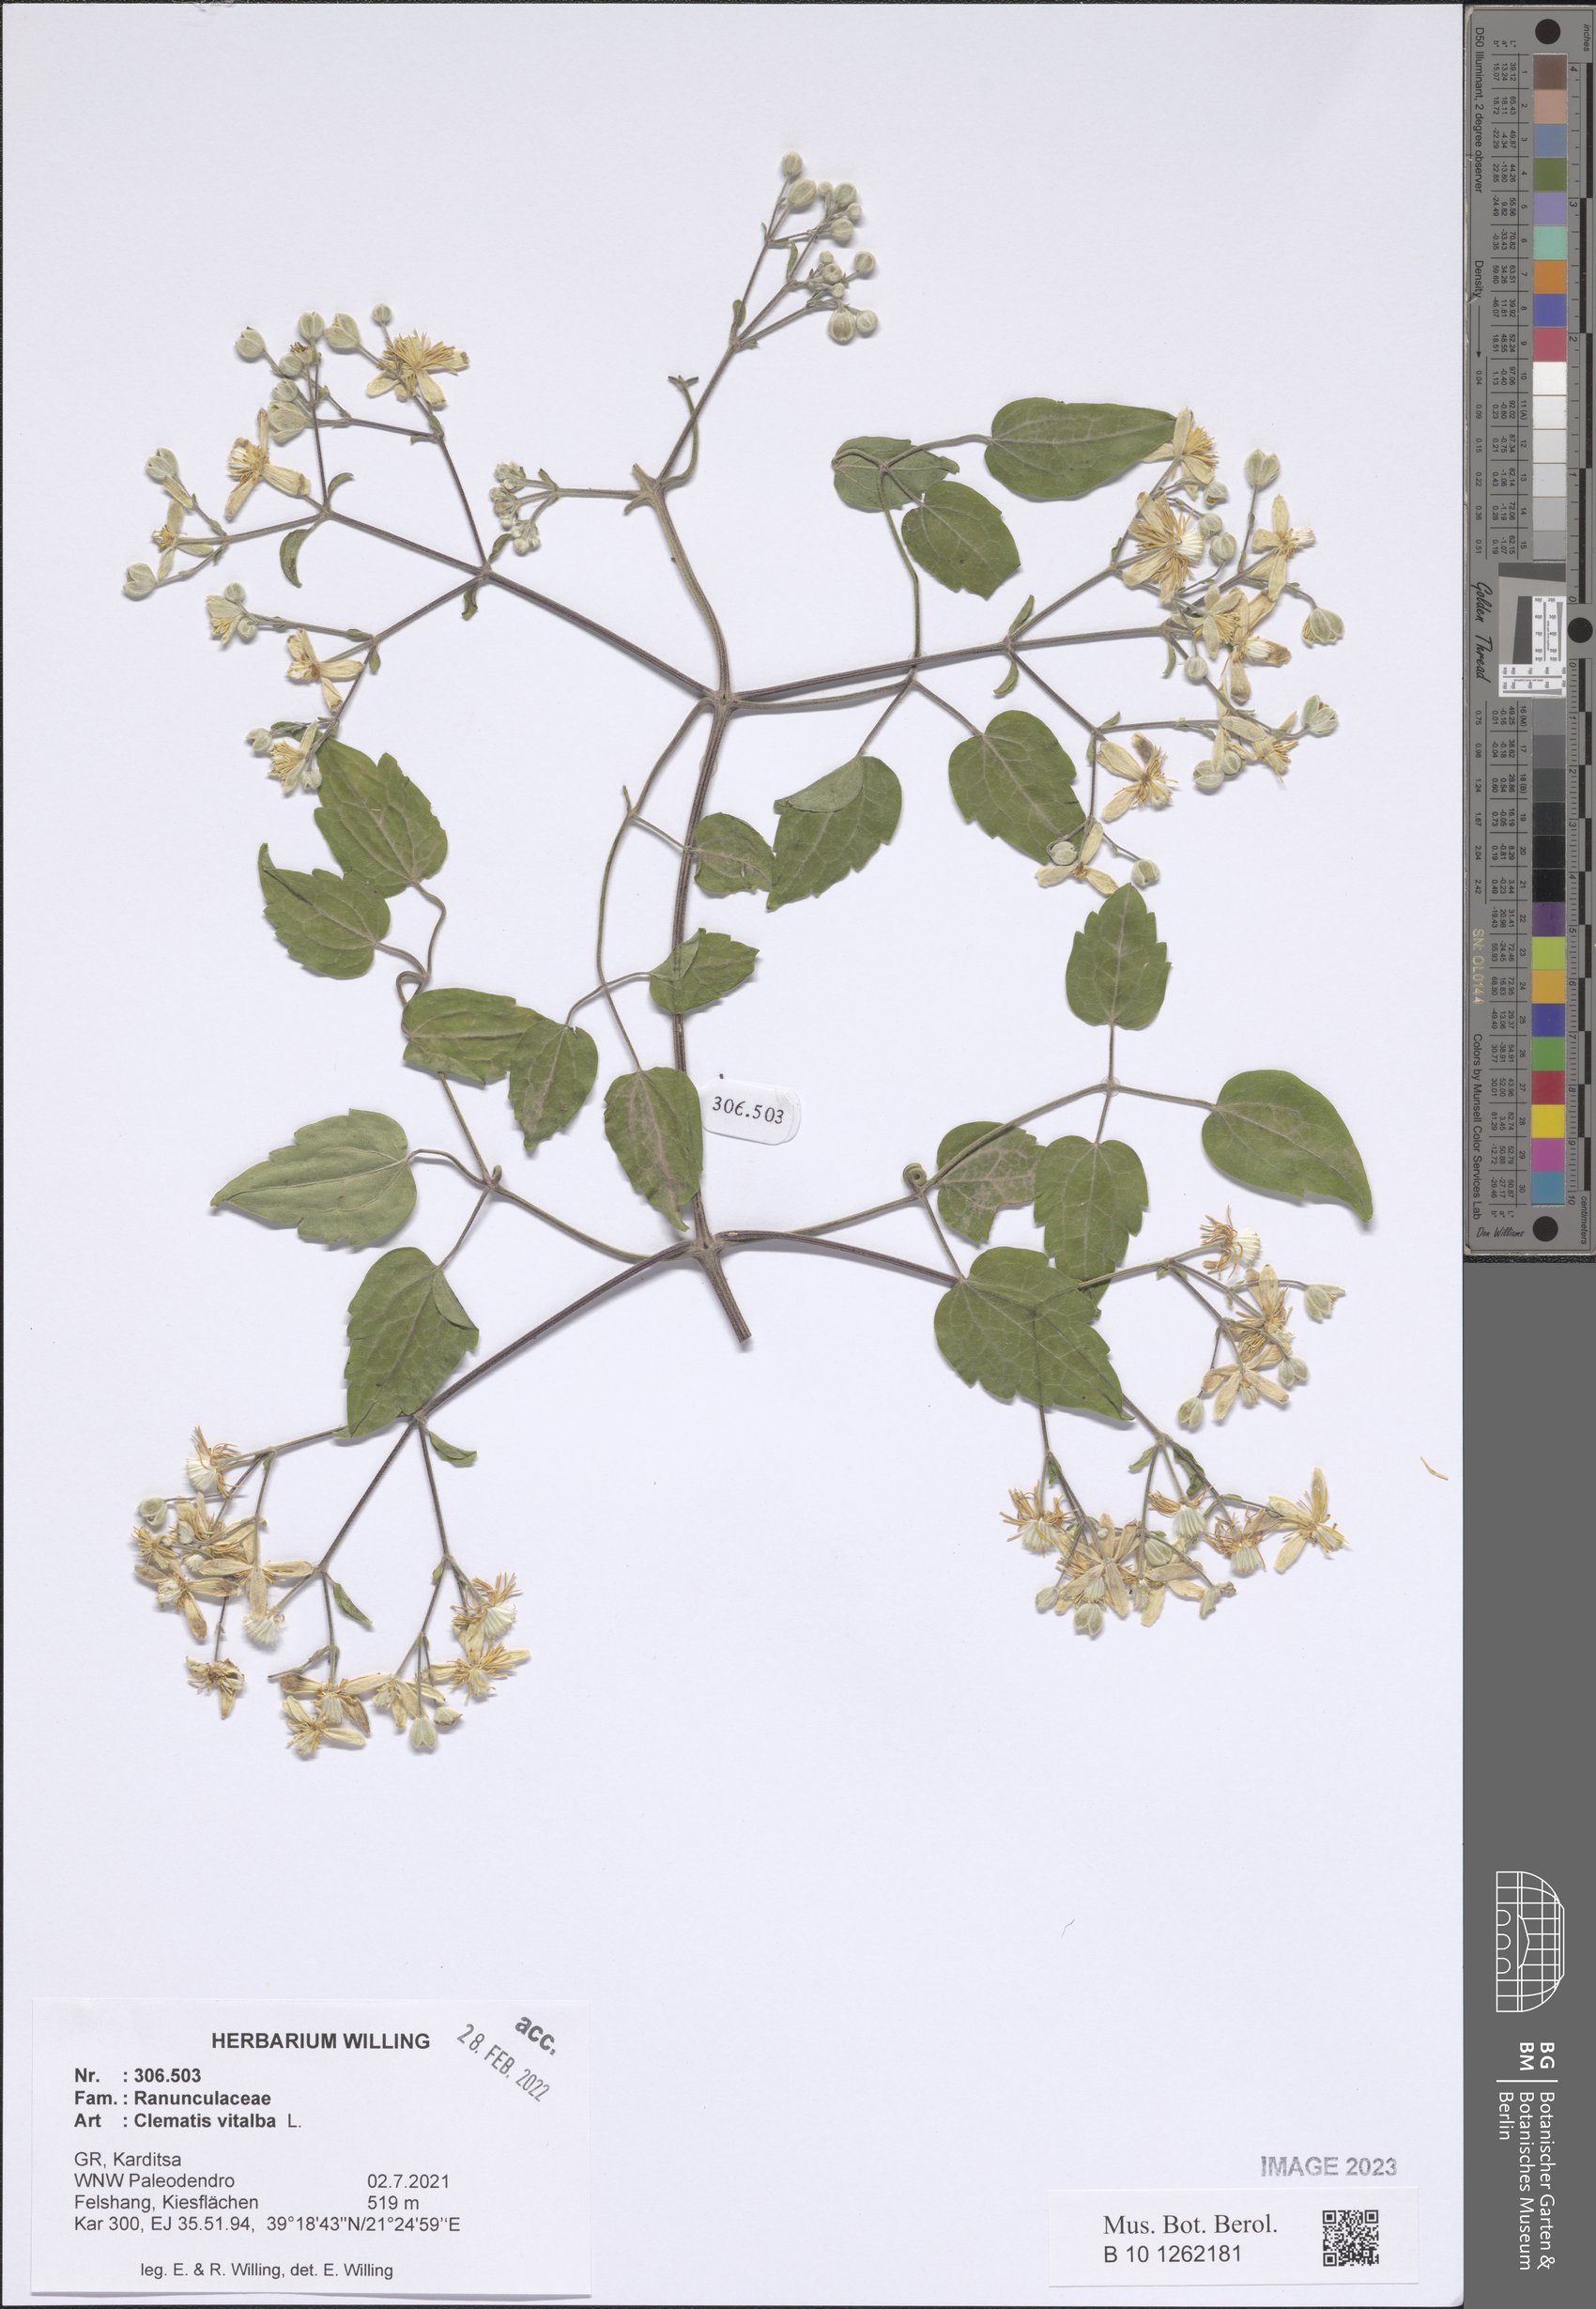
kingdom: Plantae
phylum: Tracheophyta
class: Magnoliopsida
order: Ranunculales
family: Ranunculaceae
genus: Clematis
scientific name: Clematis vitalba
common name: Evergreen clematis
